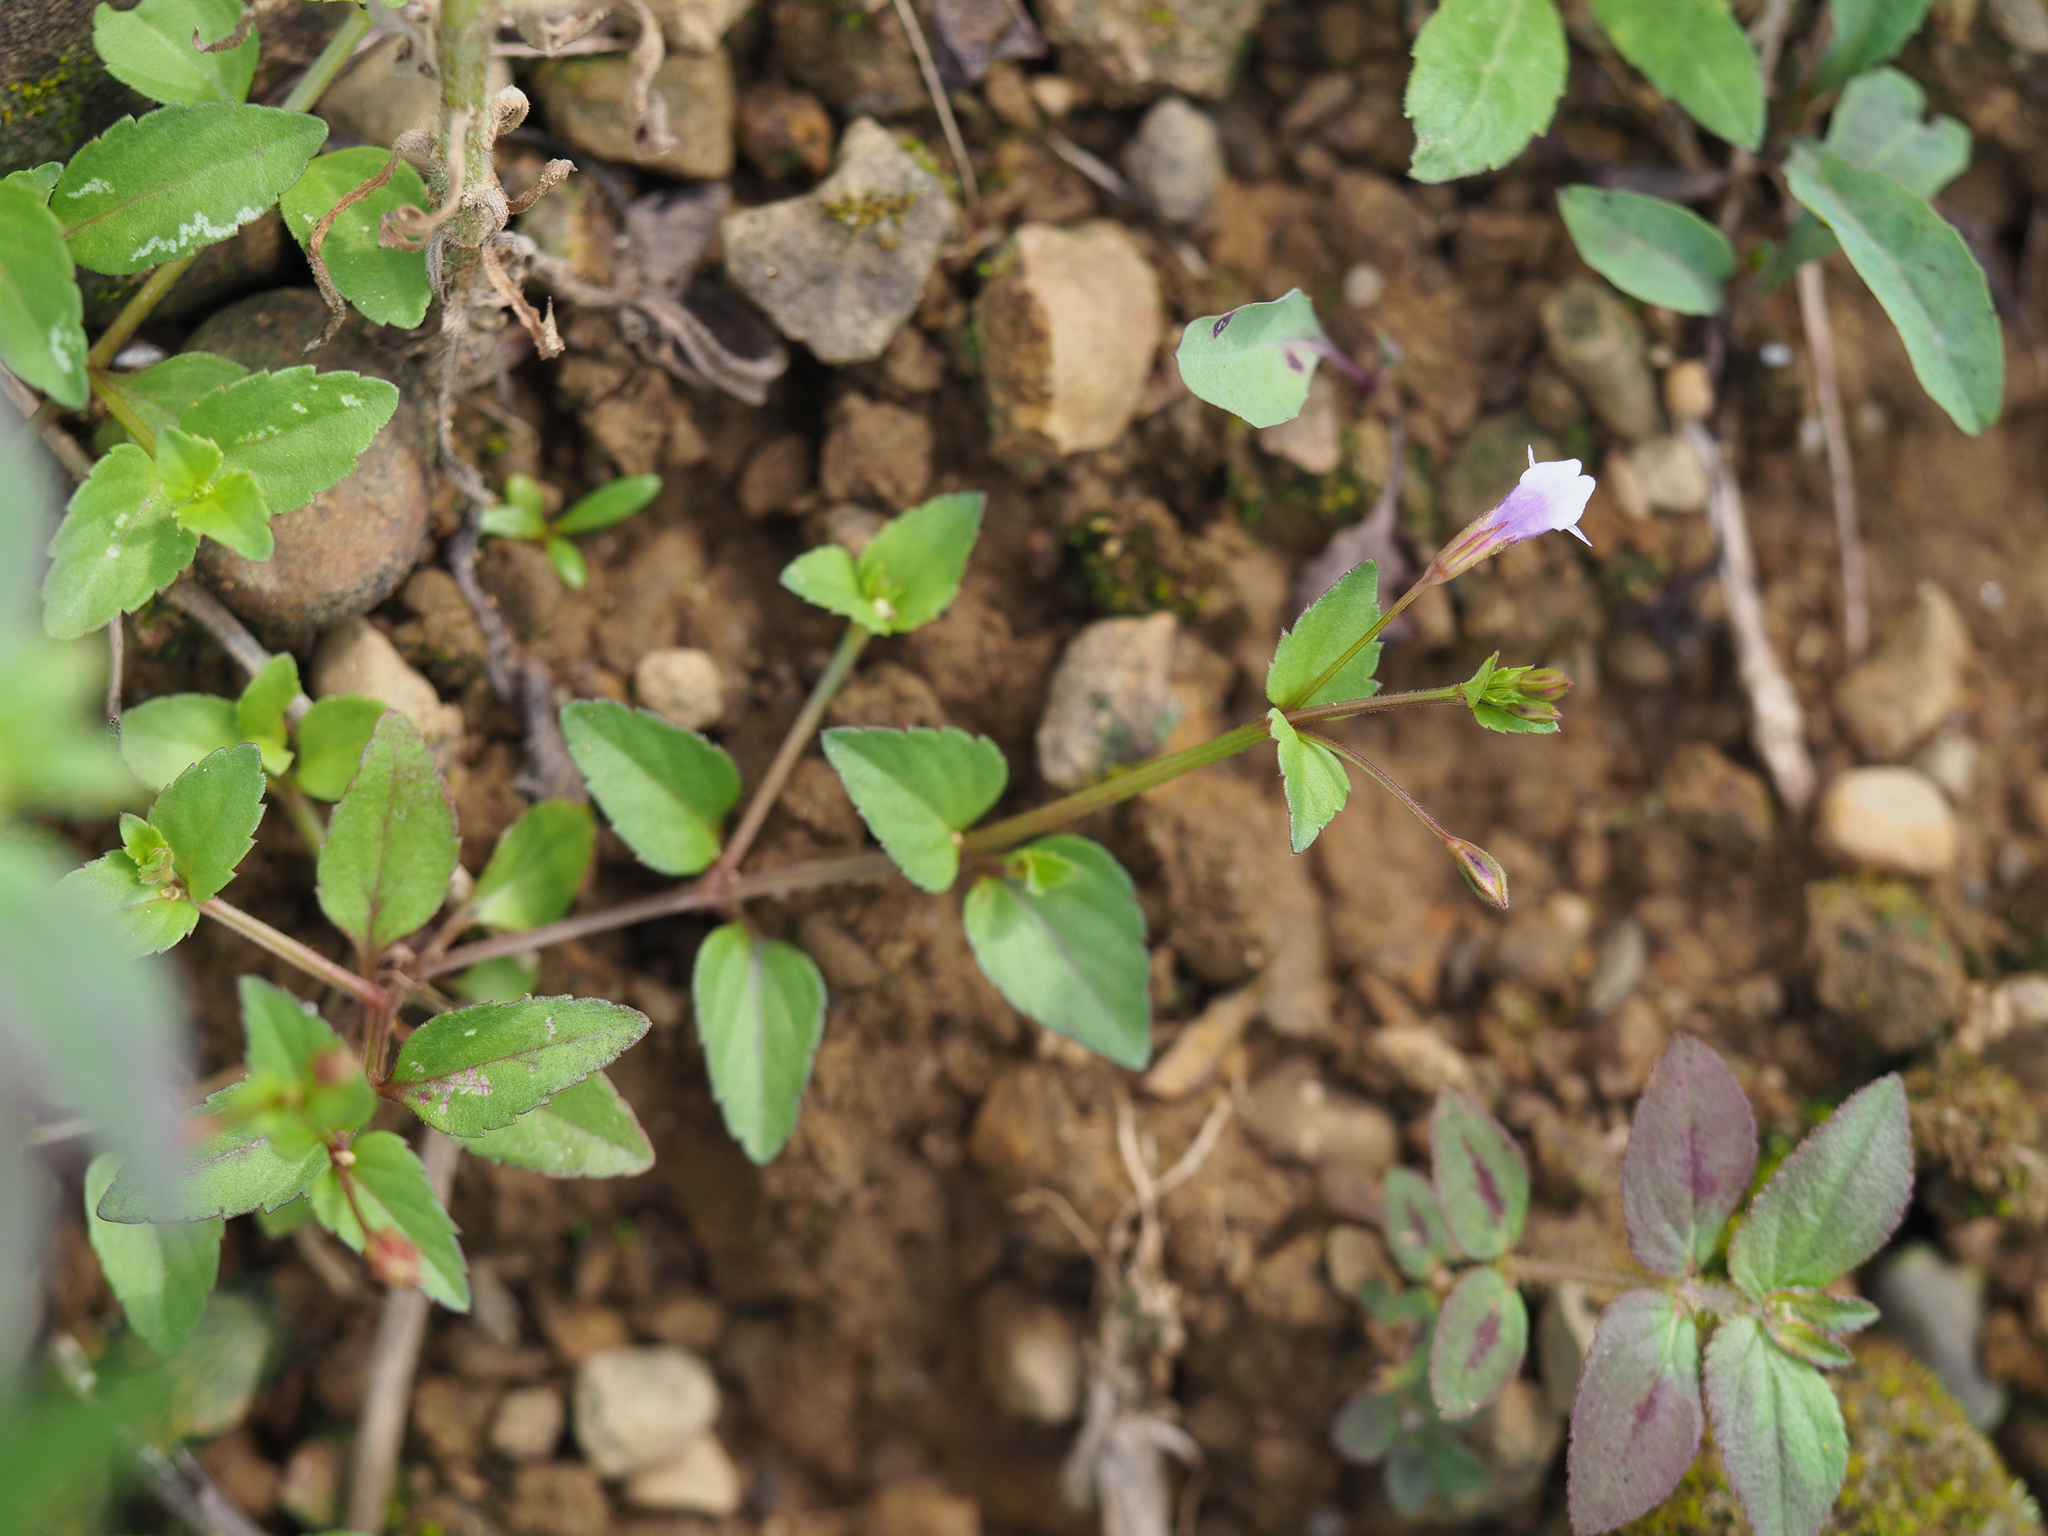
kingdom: Plantae
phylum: Tracheophyta
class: Magnoliopsida
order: Lamiales
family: Linderniaceae
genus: Torenia
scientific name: Torenia crustacea
